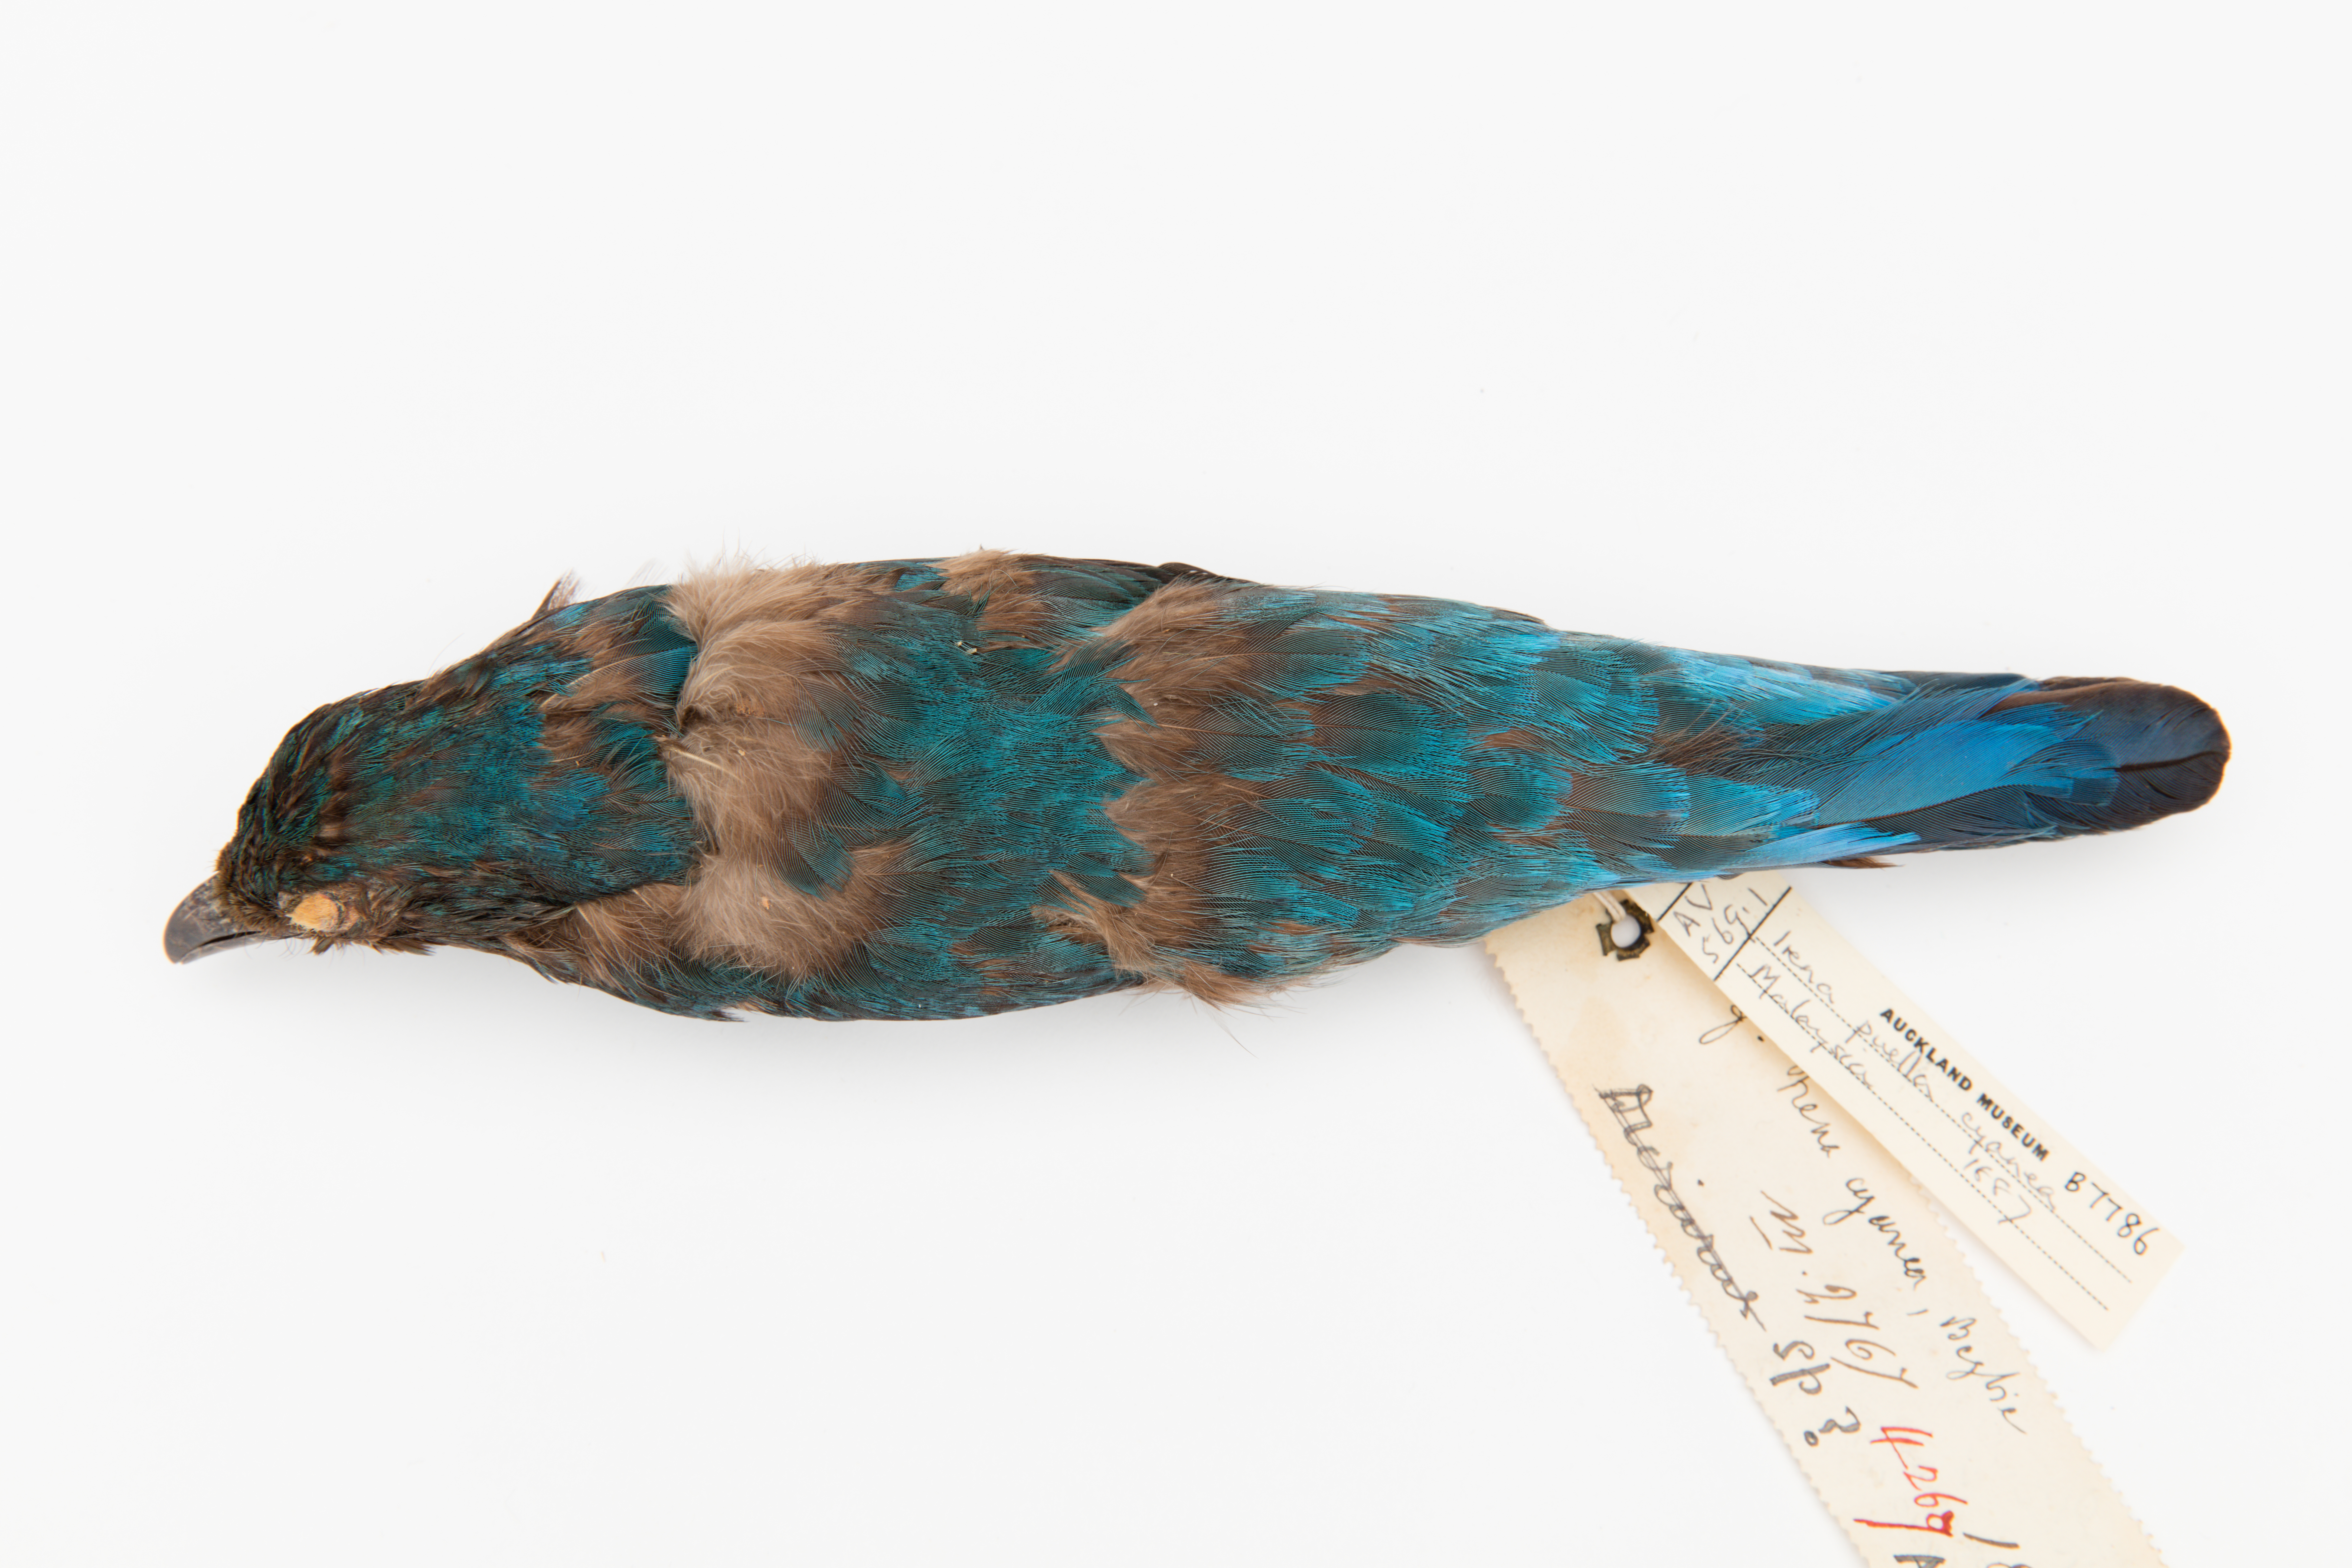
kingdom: Animalia
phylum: Chordata
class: Aves
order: Passeriformes
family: Irenidae
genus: Irena
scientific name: Irena puella
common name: Asian fairy-bluebird
